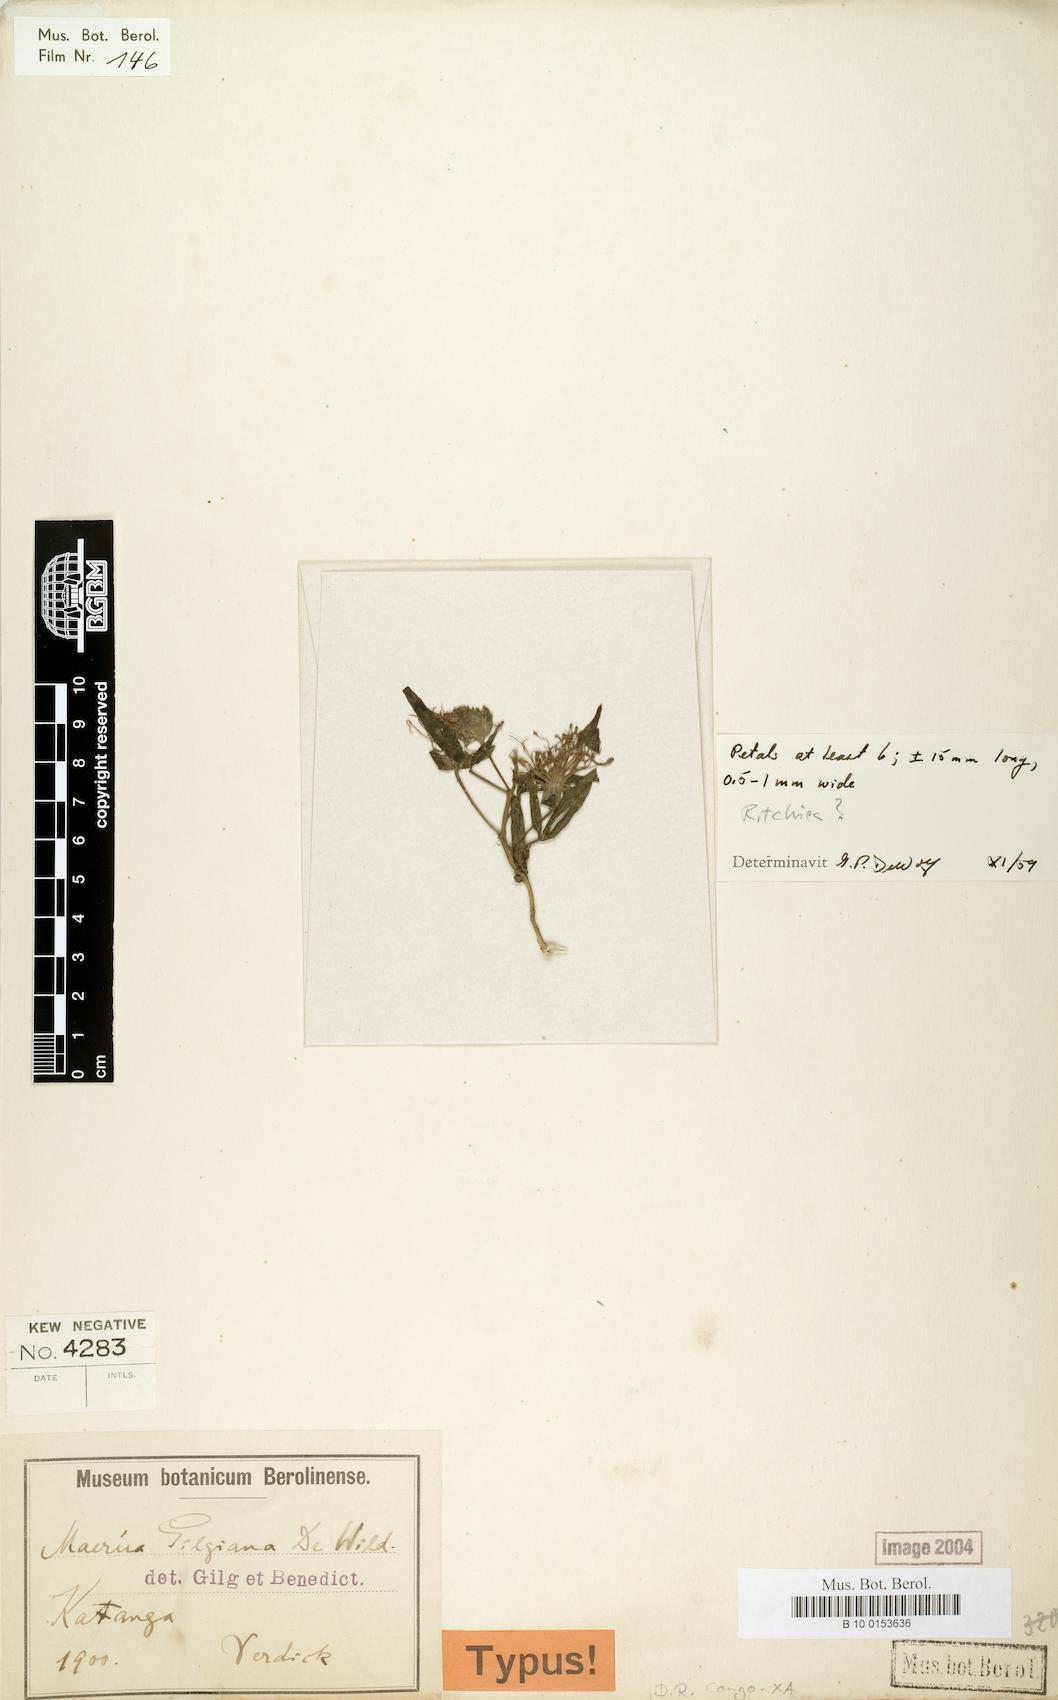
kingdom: Plantae
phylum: Tracheophyta
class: Magnoliopsida
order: Brassicales
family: Capparaceae
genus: Maerua
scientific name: Maerua gilgiana
